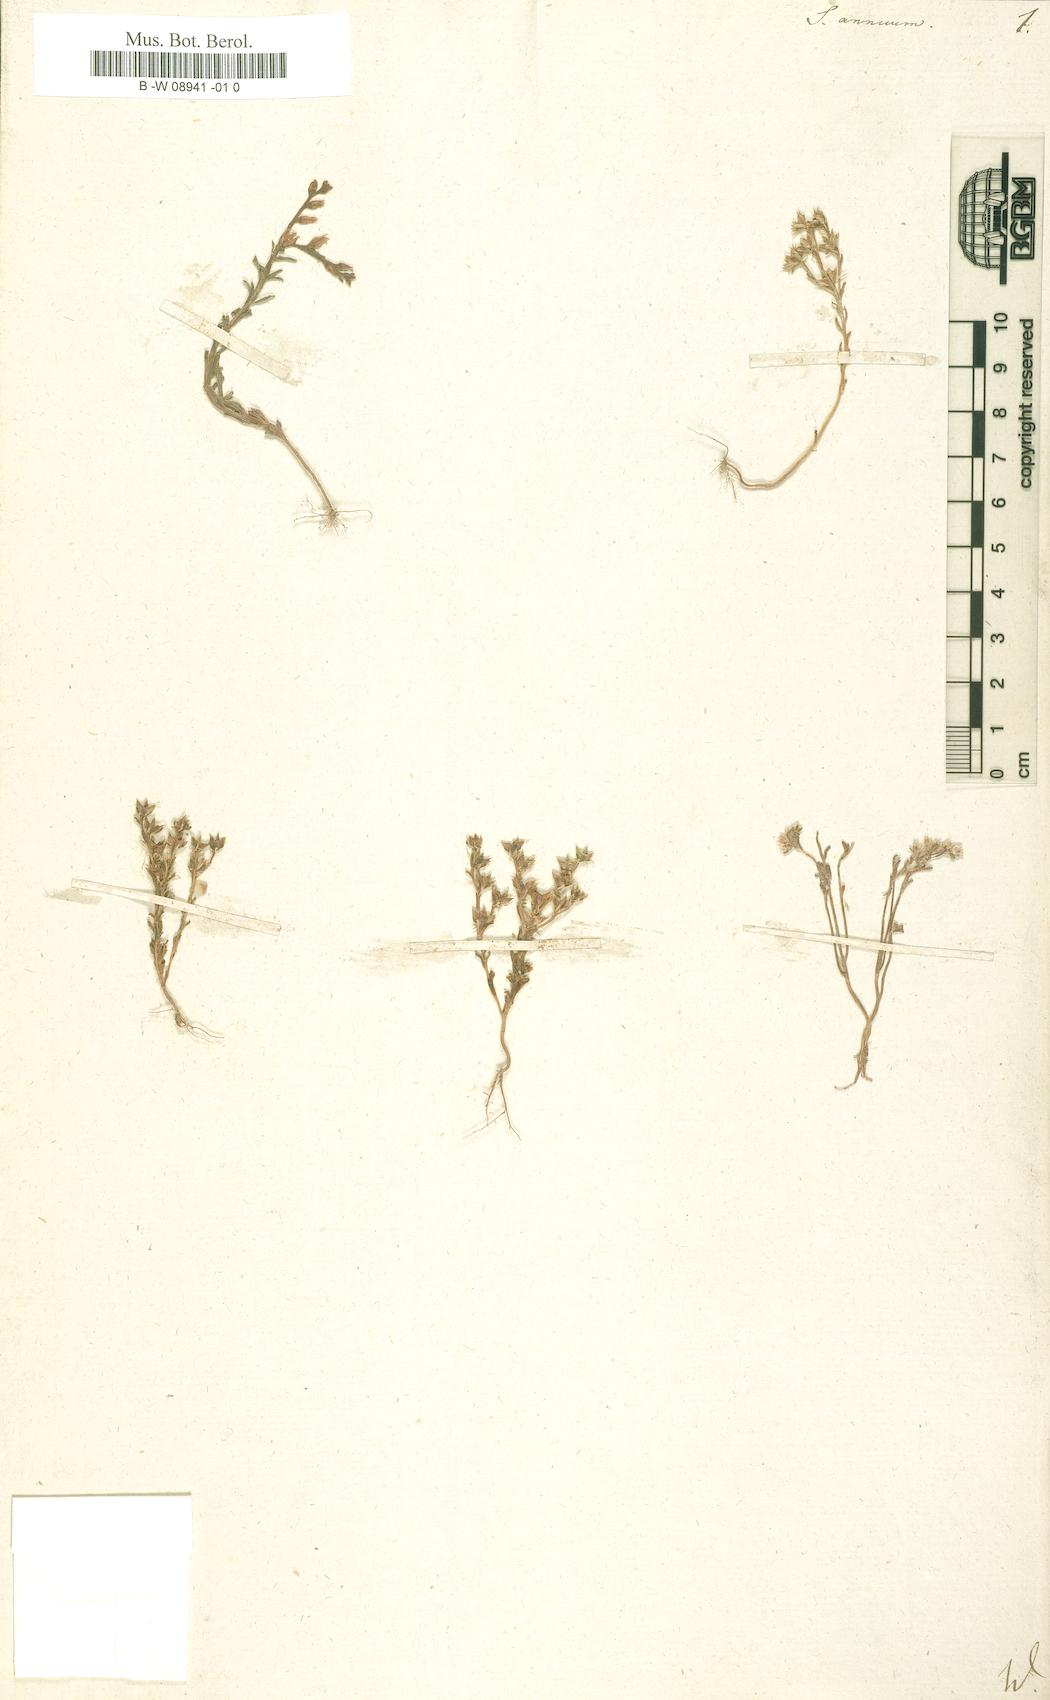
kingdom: Plantae
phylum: Tracheophyta
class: Magnoliopsida
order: Saxifragales
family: Crassulaceae
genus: Sedum
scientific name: Sedum annuum
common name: Annual stonecrop
